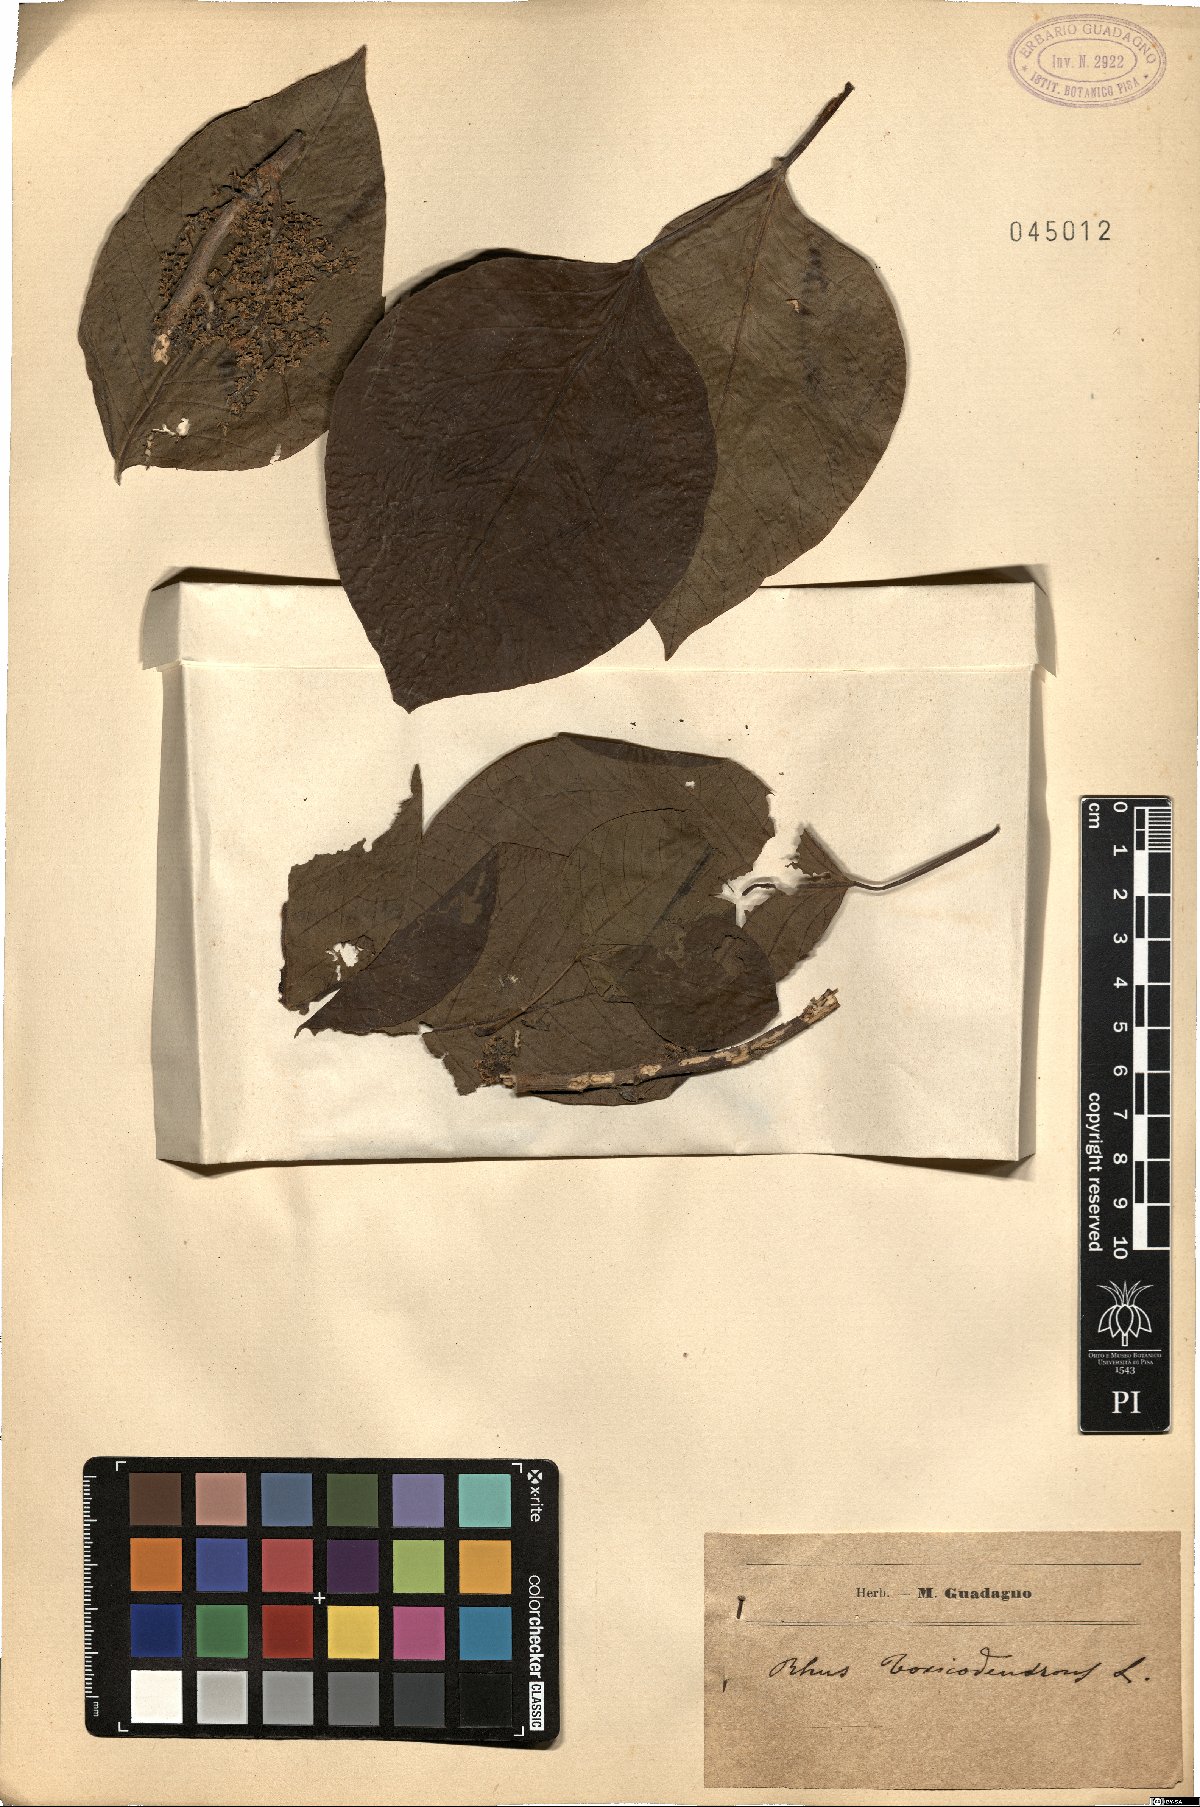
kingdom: Plantae
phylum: Tracheophyta
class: Magnoliopsida
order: Sapindales
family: Anacardiaceae
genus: Toxicodendron
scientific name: Toxicodendron
